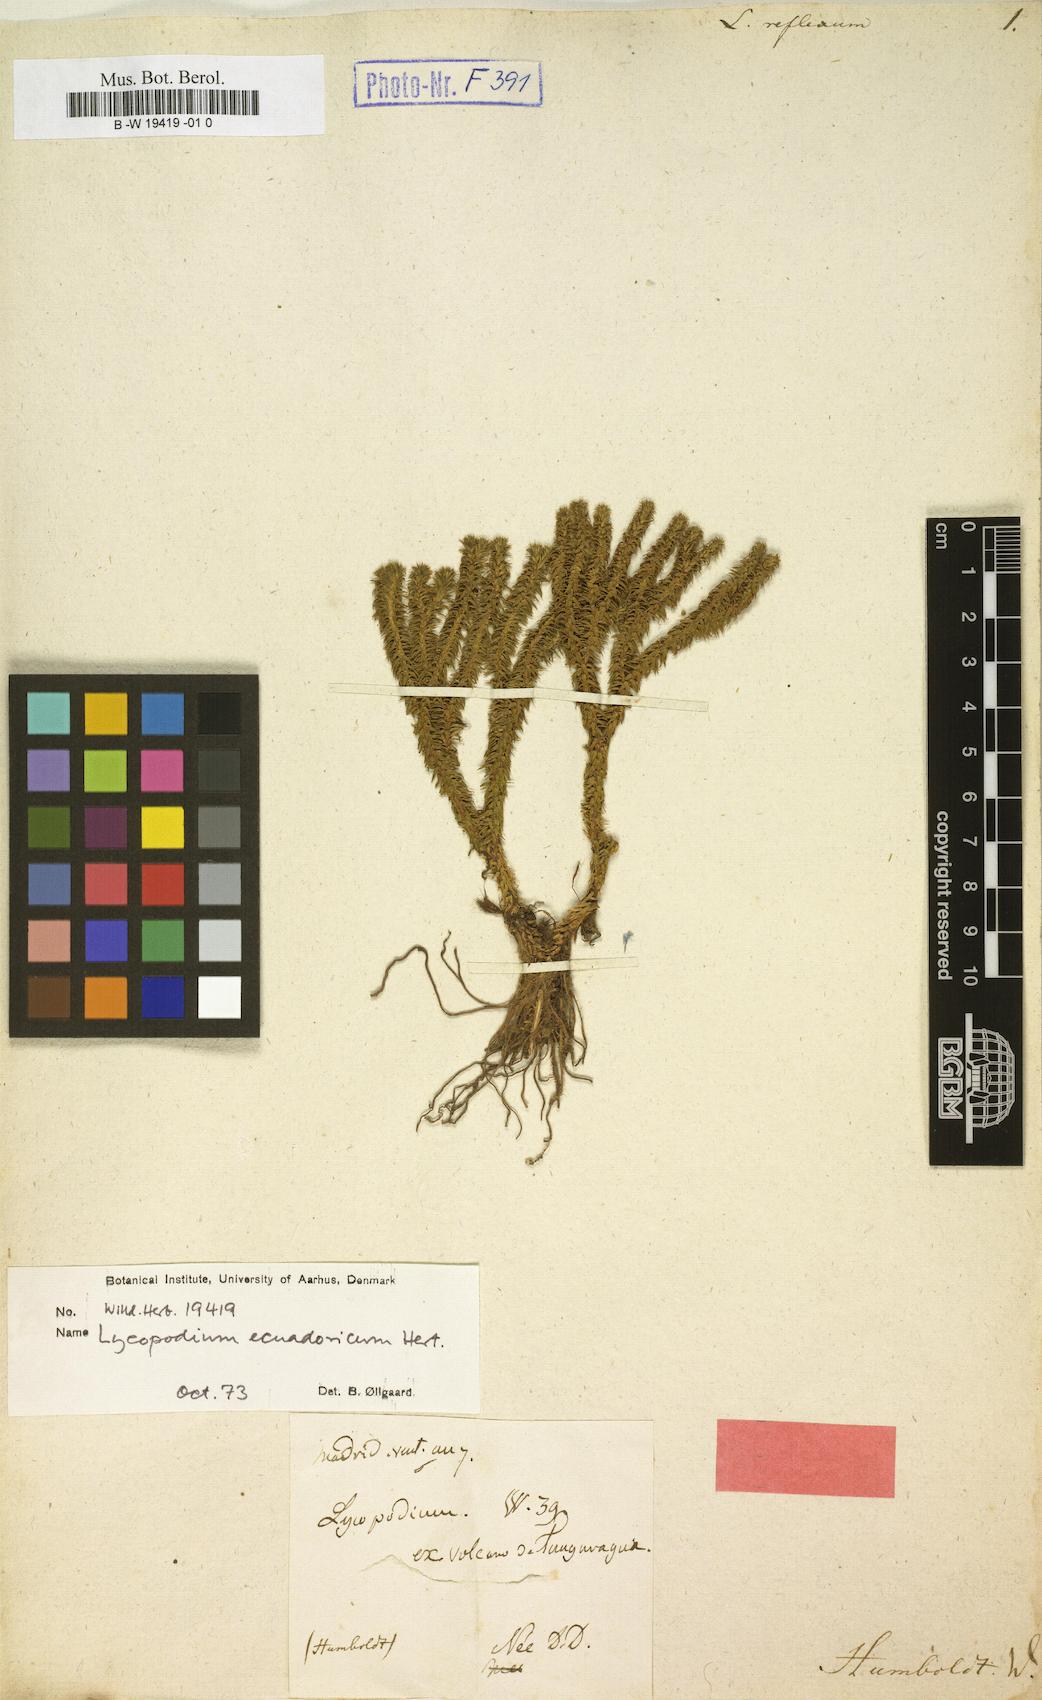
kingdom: Plantae
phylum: Tracheophyta
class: Lycopodiopsida
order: Lycopodiales
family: Lycopodiaceae
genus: Phlegmariurus
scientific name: Phlegmariurus eversus
